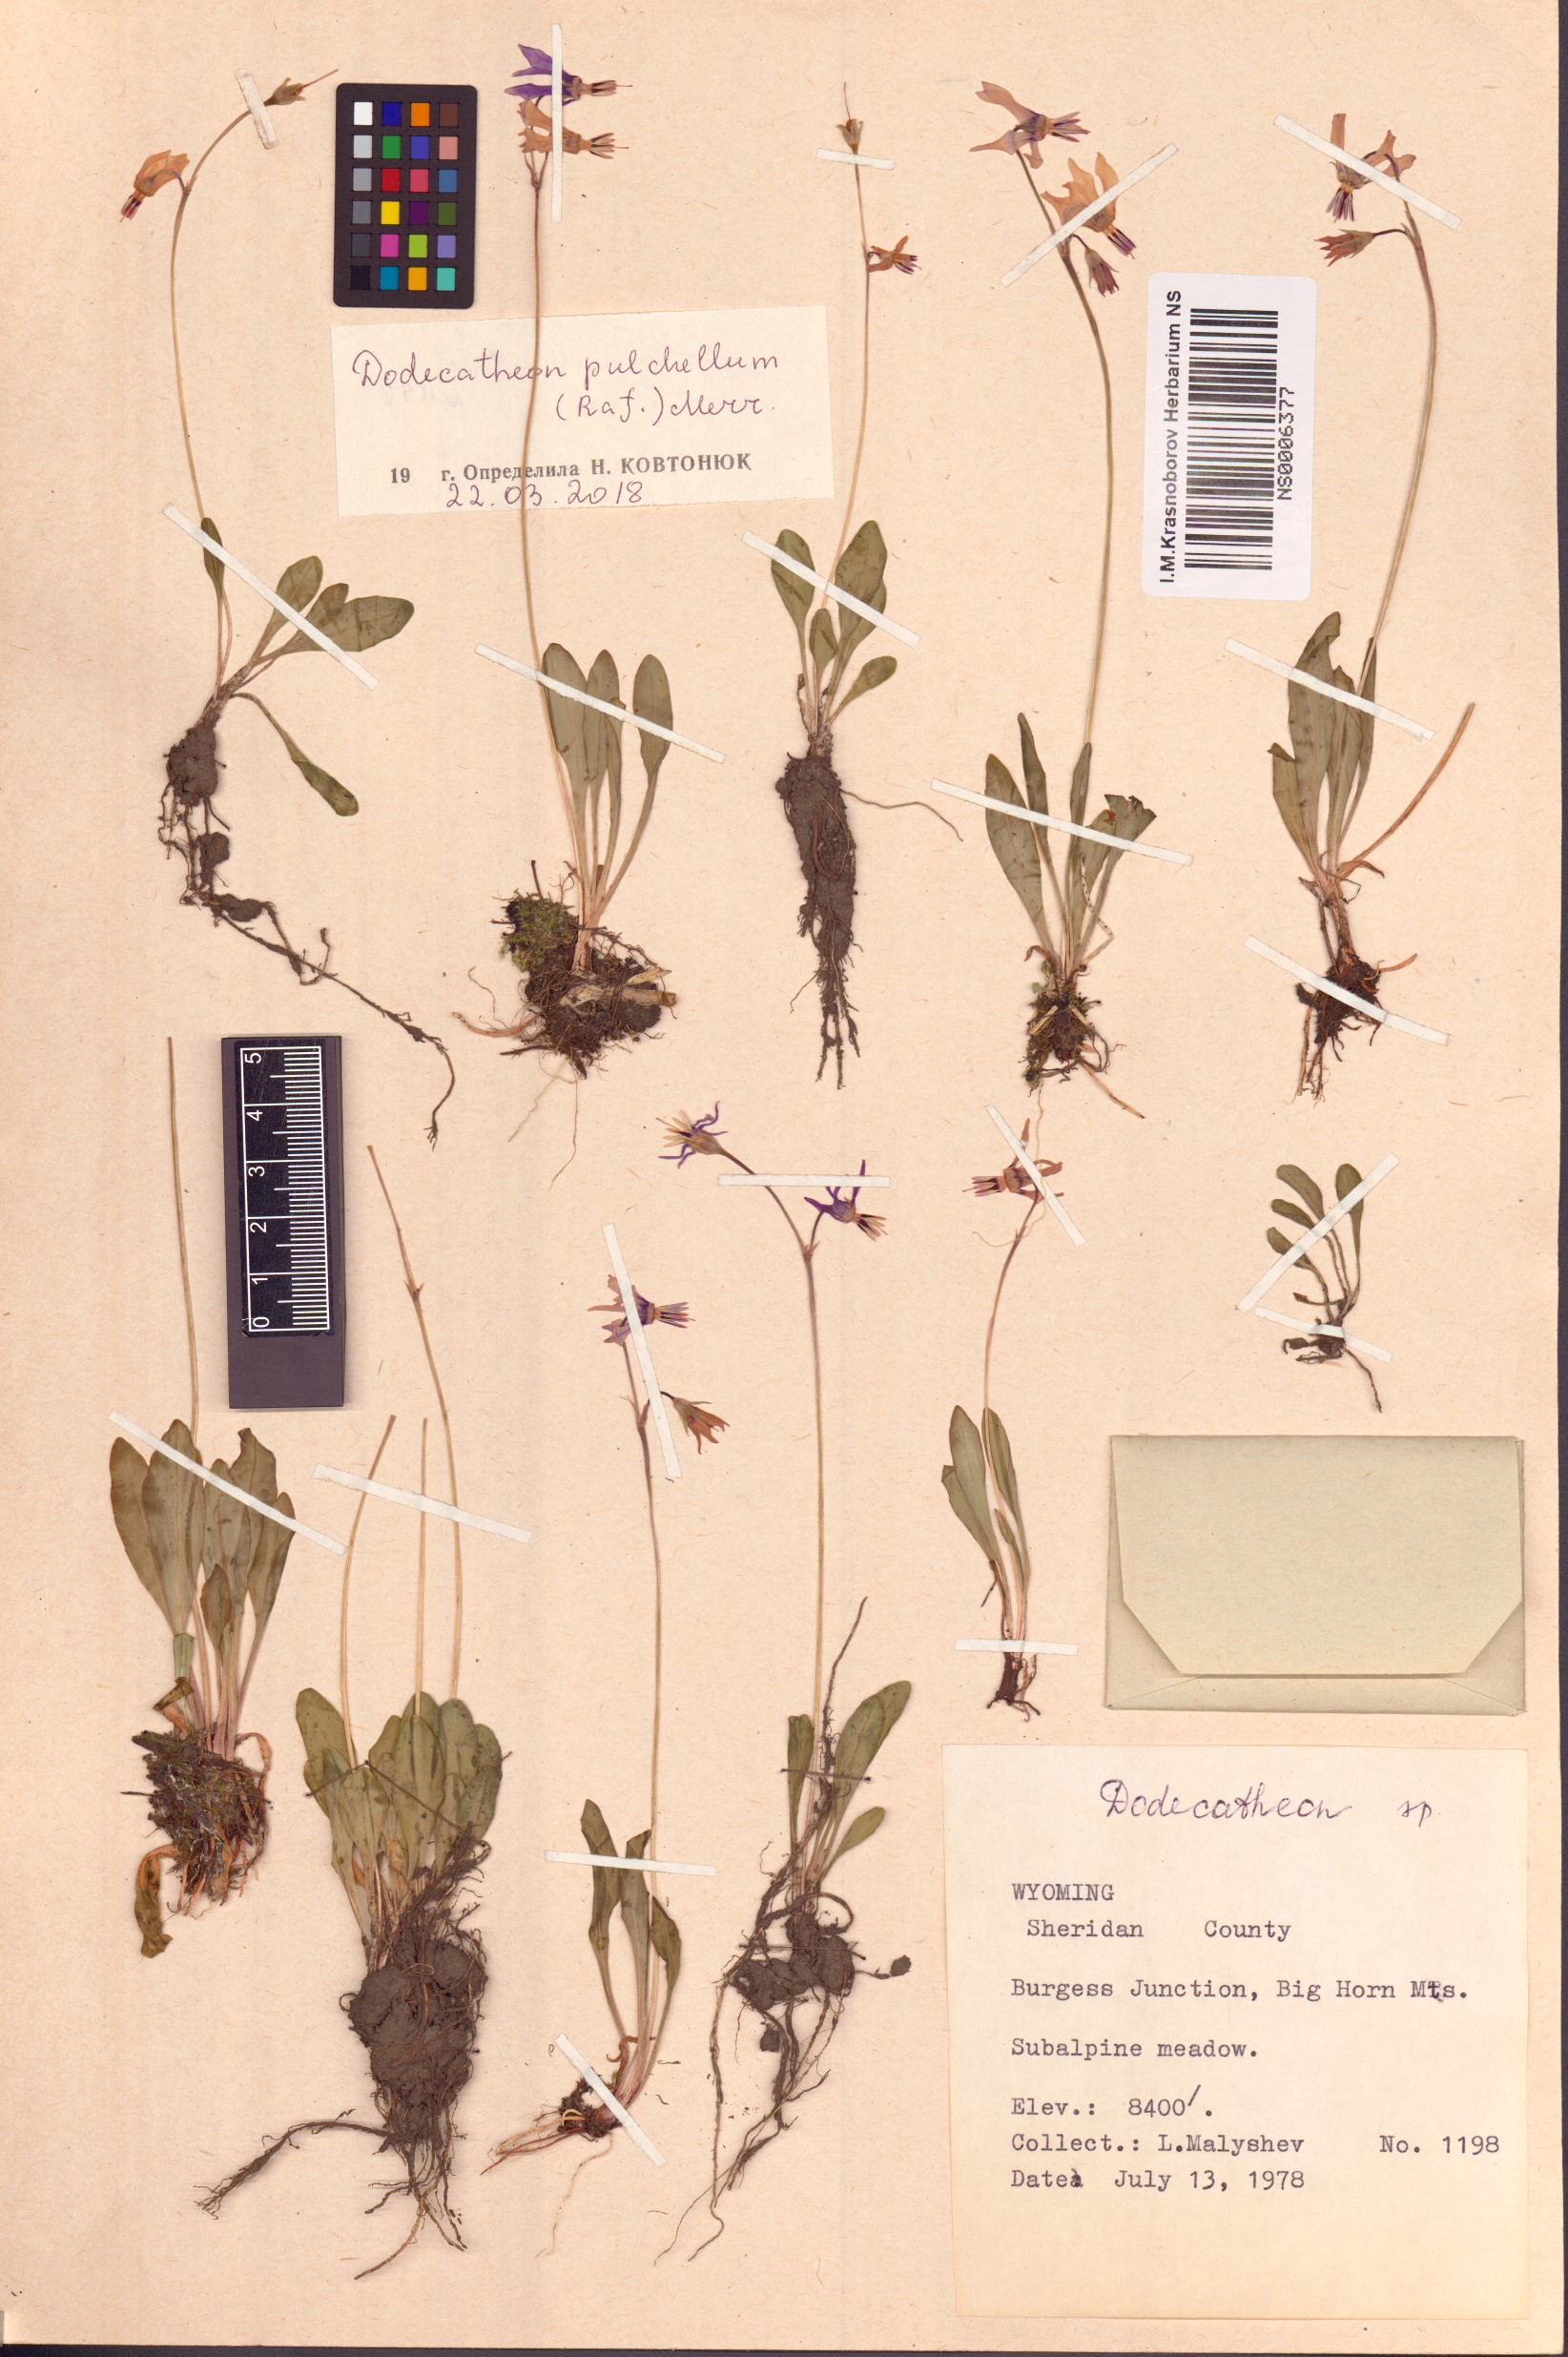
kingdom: Plantae
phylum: Tracheophyta
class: Magnoliopsida
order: Ericales
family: Primulaceae
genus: Dodecatheon
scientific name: Dodecatheon pulchellum
